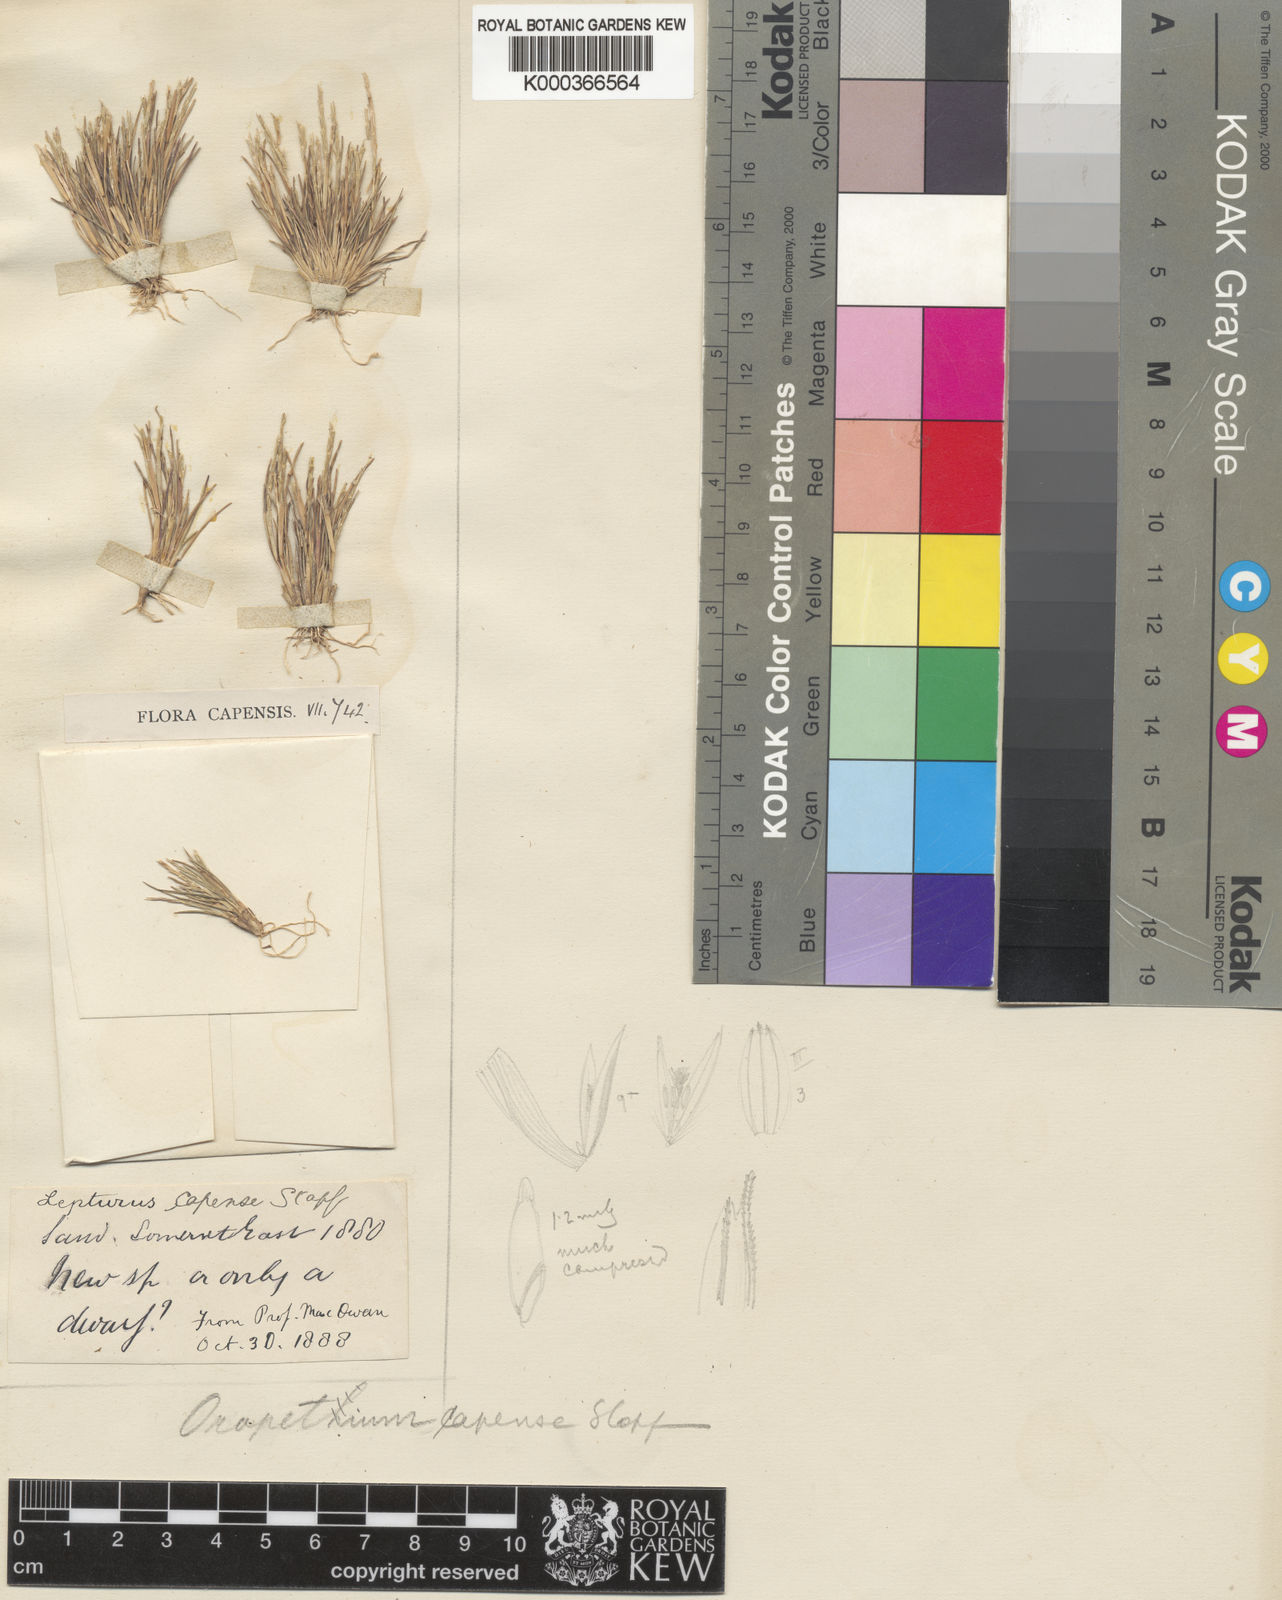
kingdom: Plantae
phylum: Tracheophyta
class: Liliopsida
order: Poales
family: Poaceae
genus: Oropetium
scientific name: Oropetium capense
